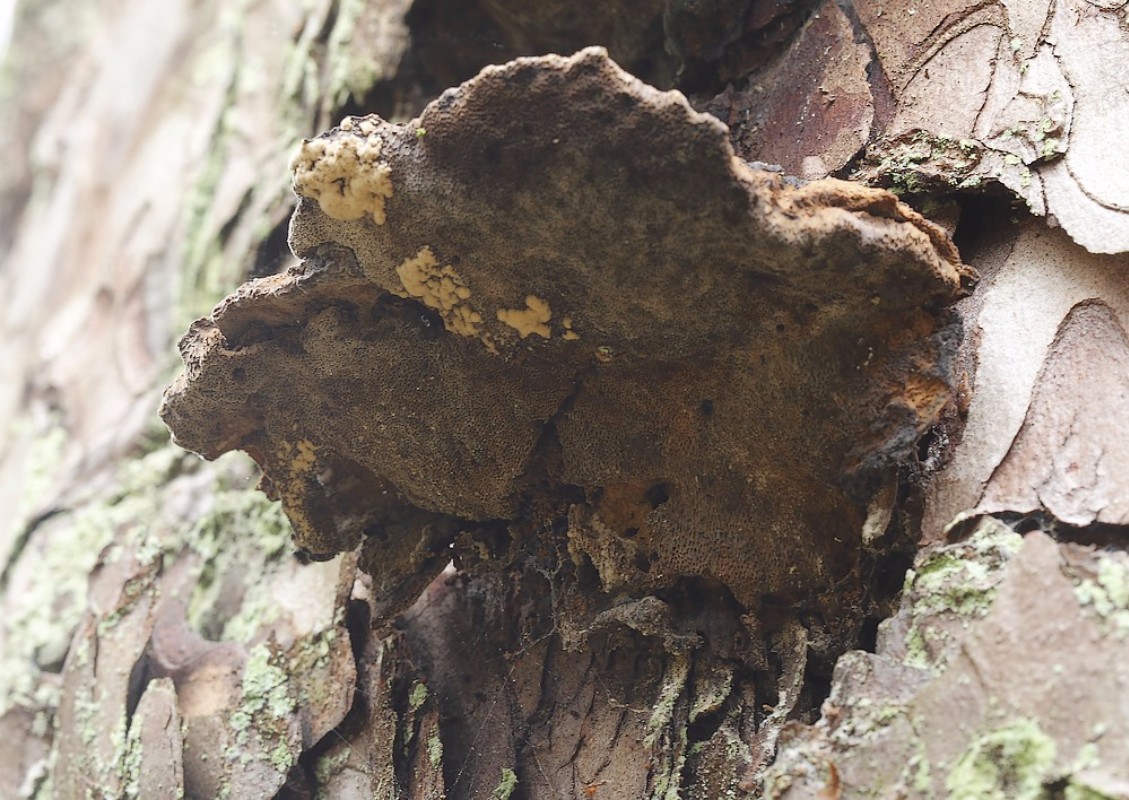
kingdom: Fungi
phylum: Basidiomycota
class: Agaricomycetes
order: Polyporales
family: Ischnodermataceae
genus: Ischnoderma
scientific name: Ischnoderma benzoinum
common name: gran-tjæreporesvamp
